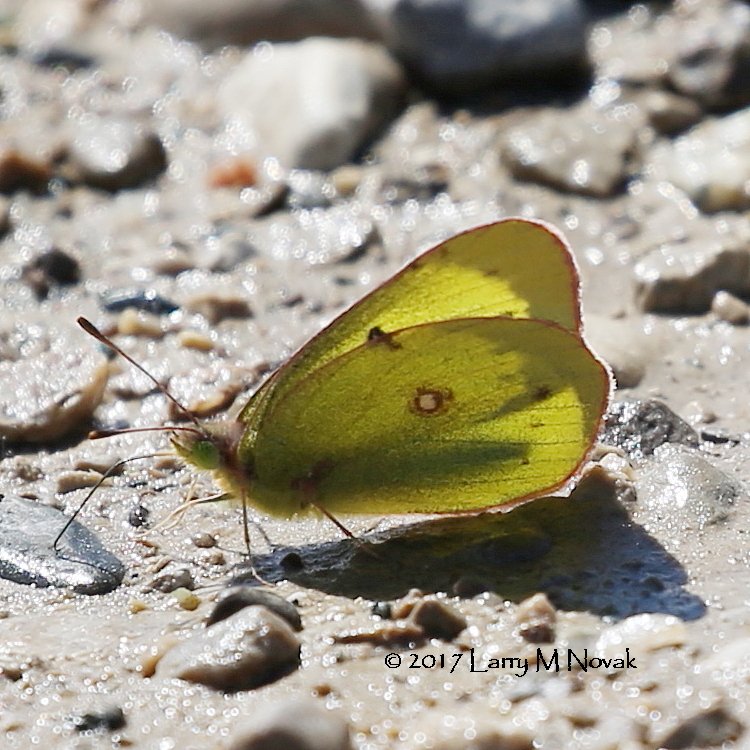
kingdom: Animalia
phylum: Arthropoda
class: Insecta
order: Lepidoptera
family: Pieridae
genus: Colias
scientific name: Colias philodice
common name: Clouded Sulphur
